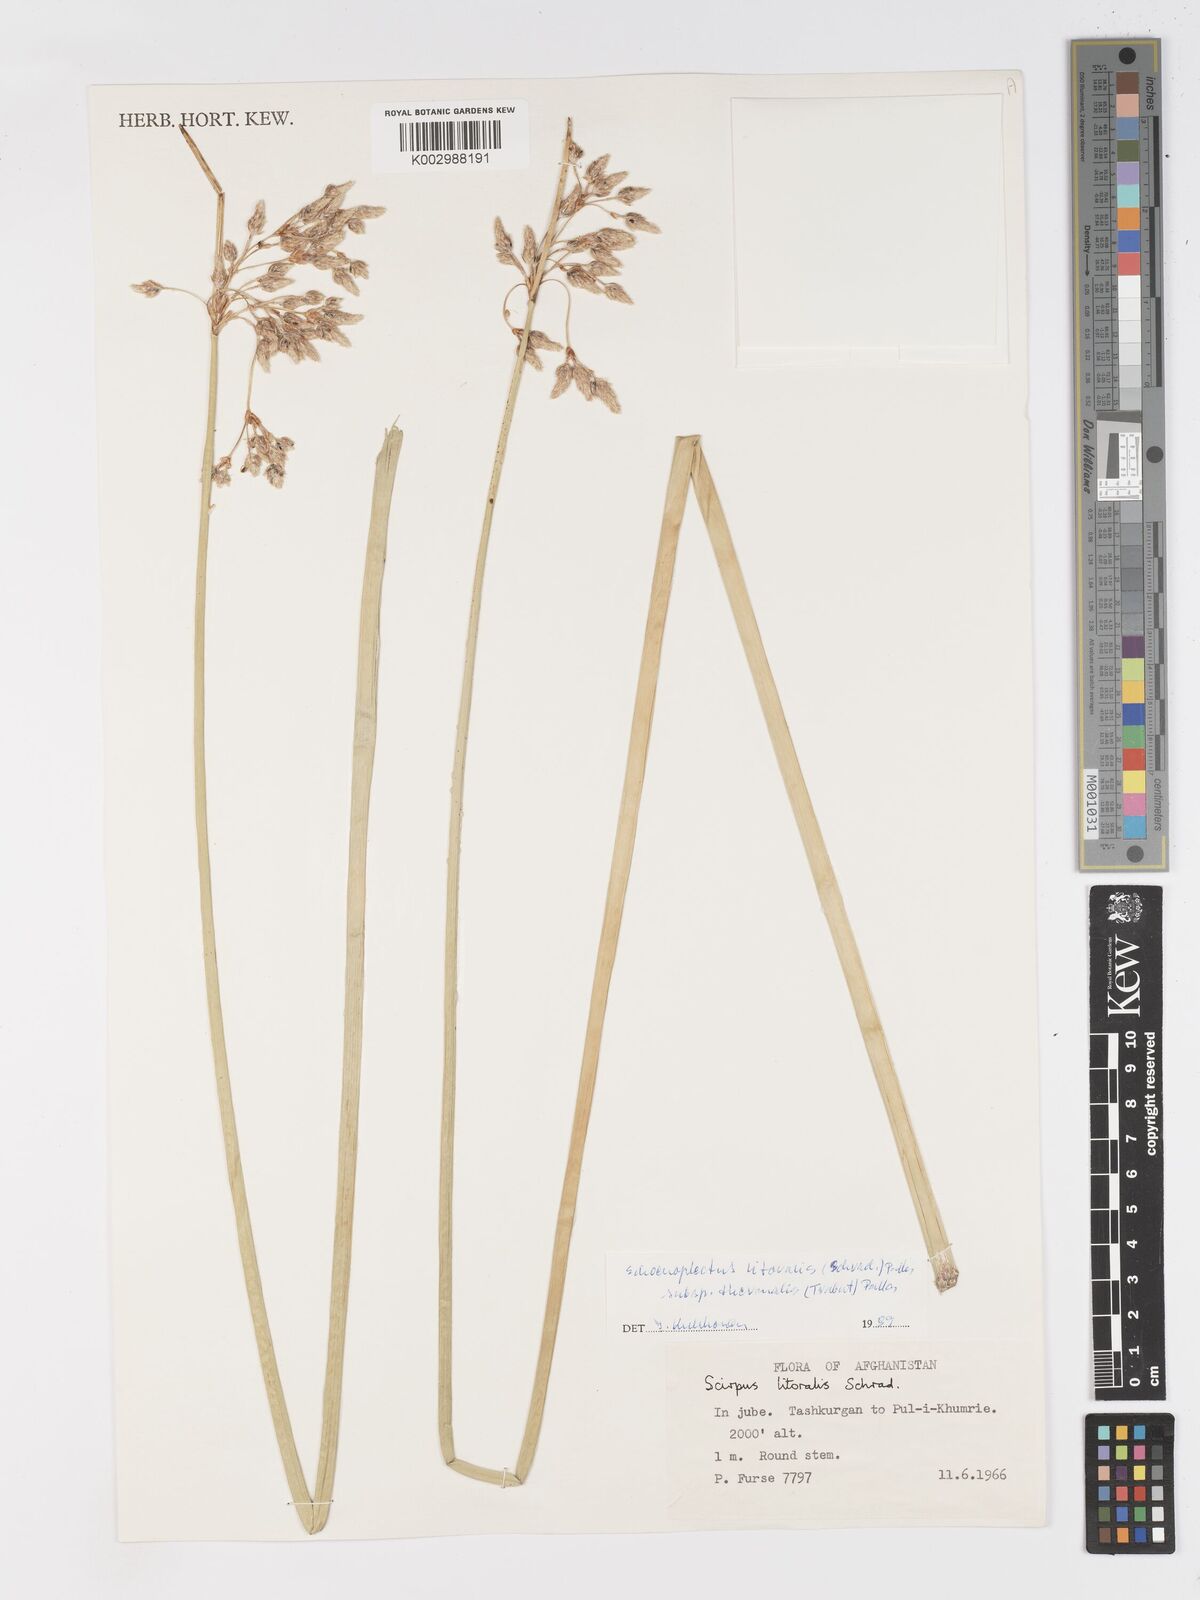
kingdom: Plantae
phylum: Tracheophyta
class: Liliopsida
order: Poales
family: Cyperaceae
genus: Schoenoplectus
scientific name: Schoenoplectus litoralis
